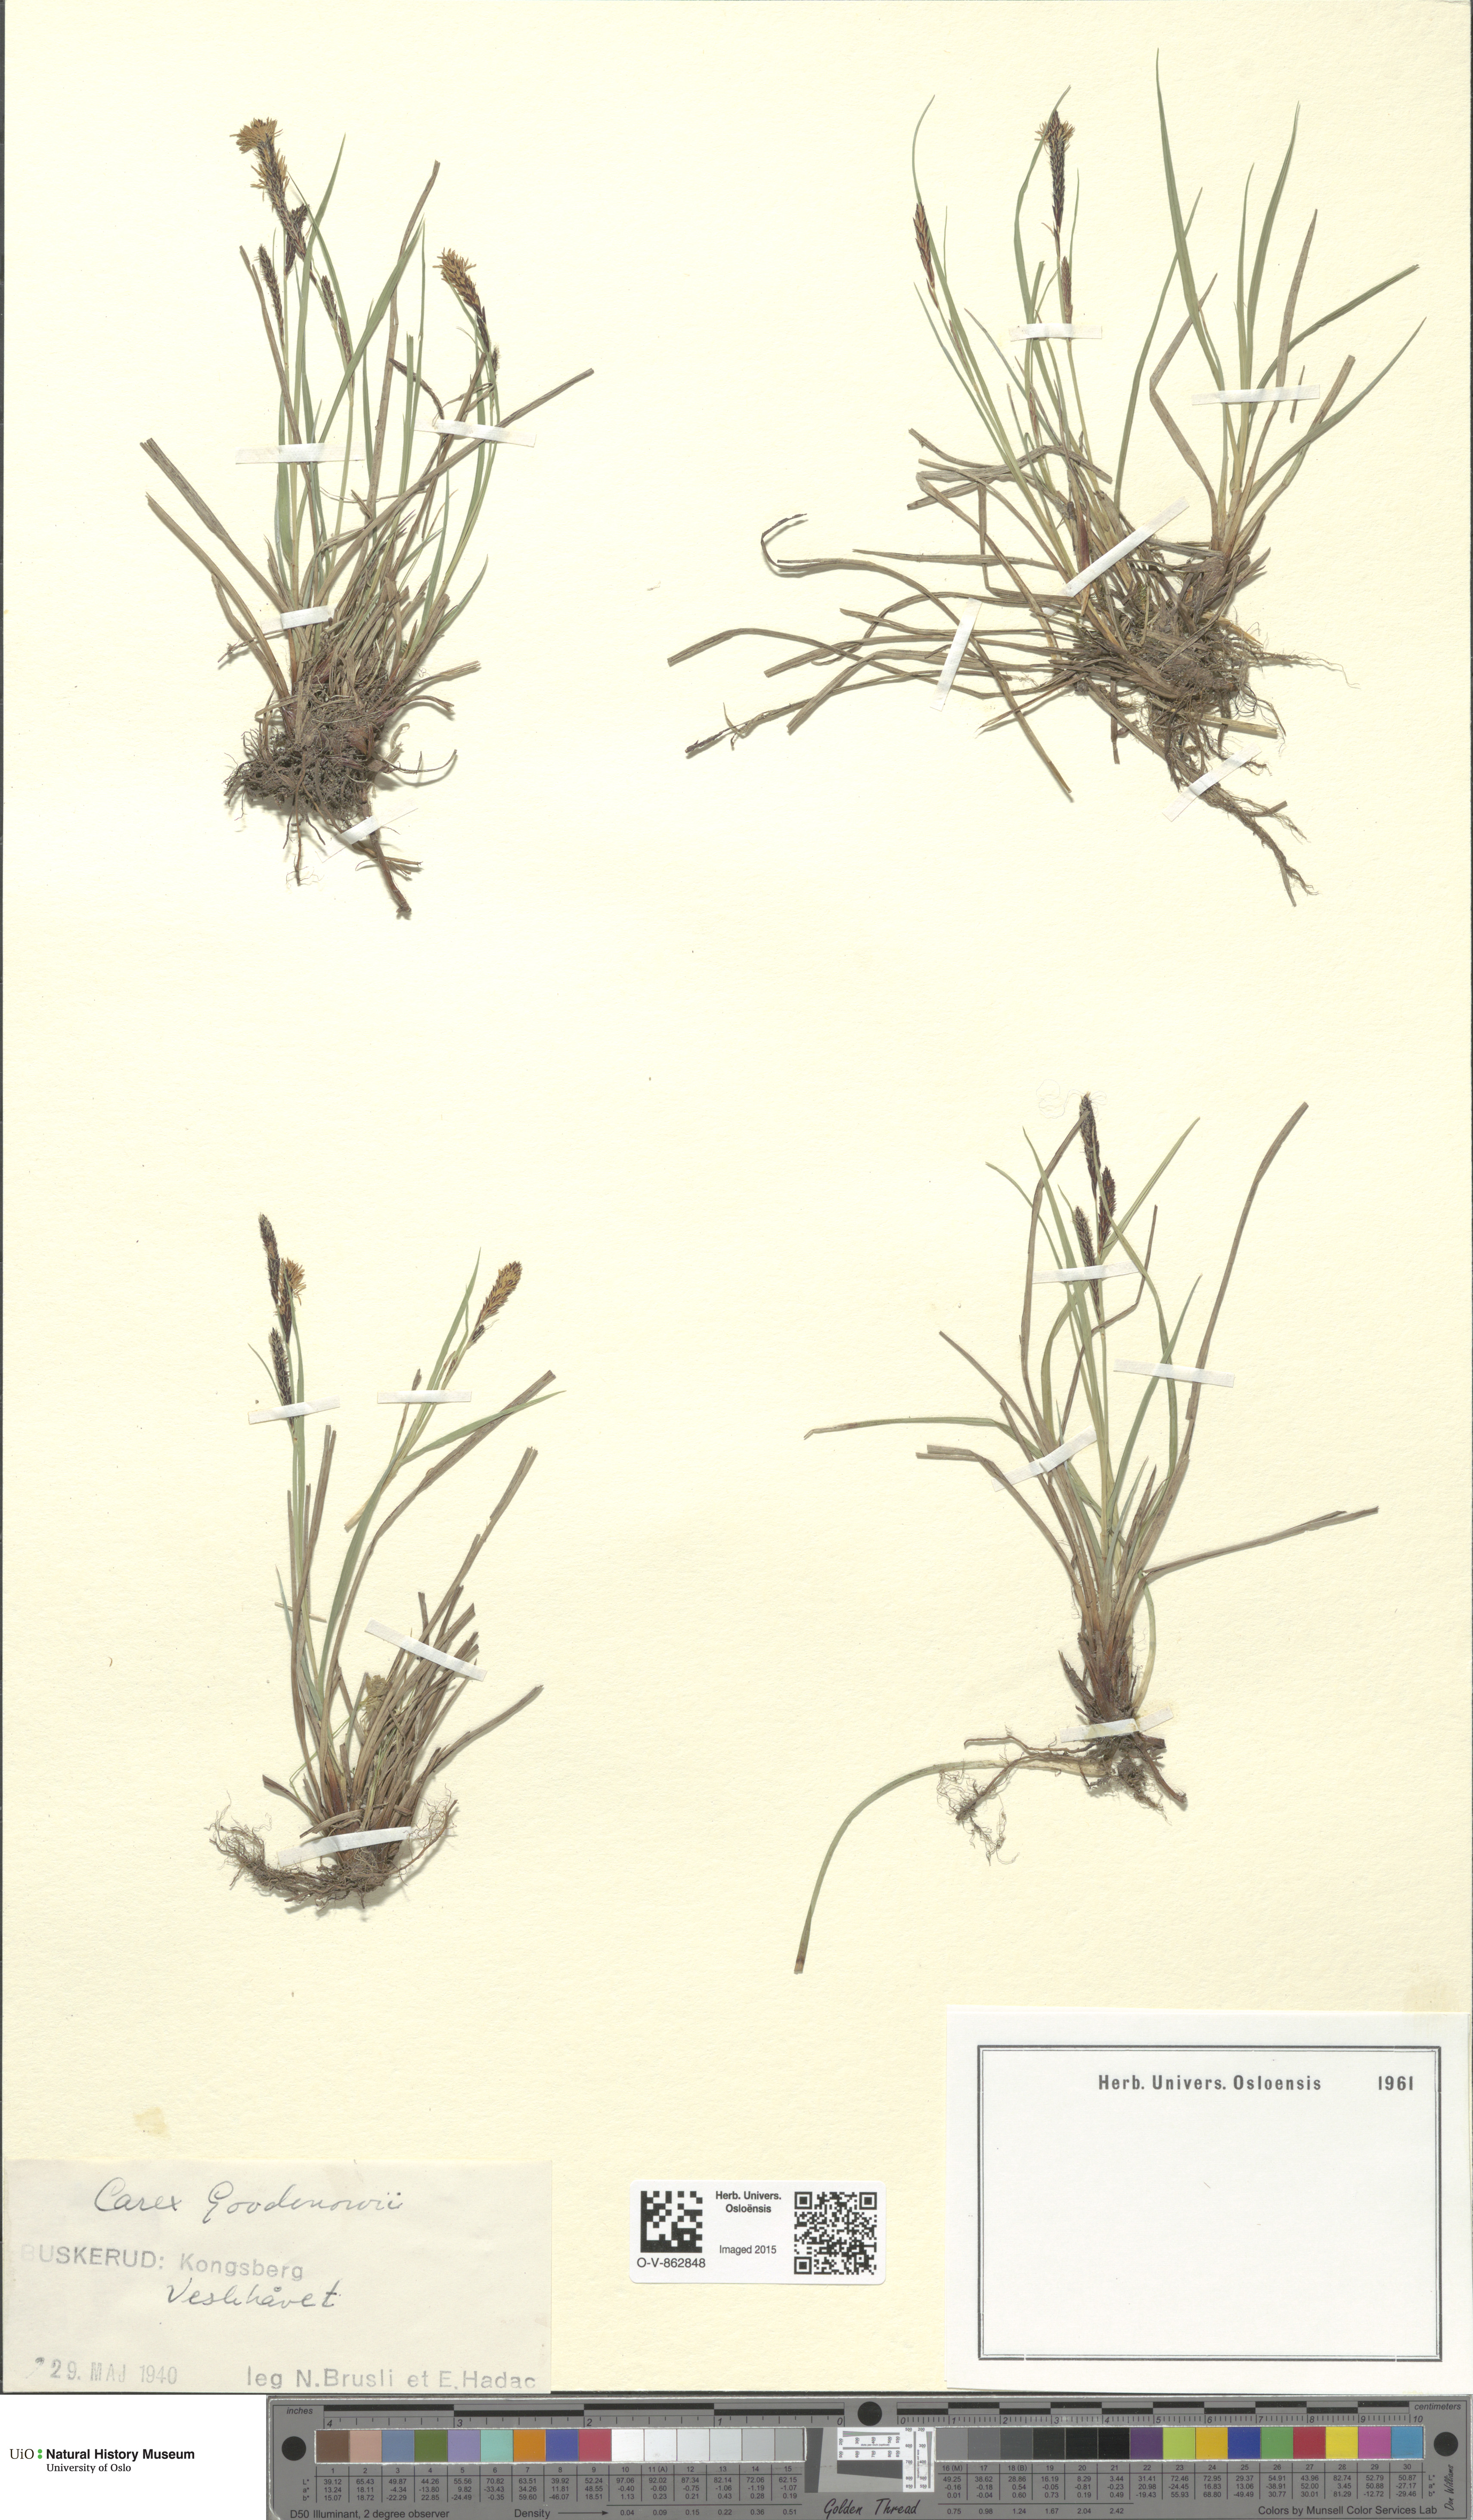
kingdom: Plantae
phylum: Tracheophyta
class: Liliopsida
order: Poales
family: Cyperaceae
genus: Carex
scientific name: Carex nigra
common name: Common sedge
